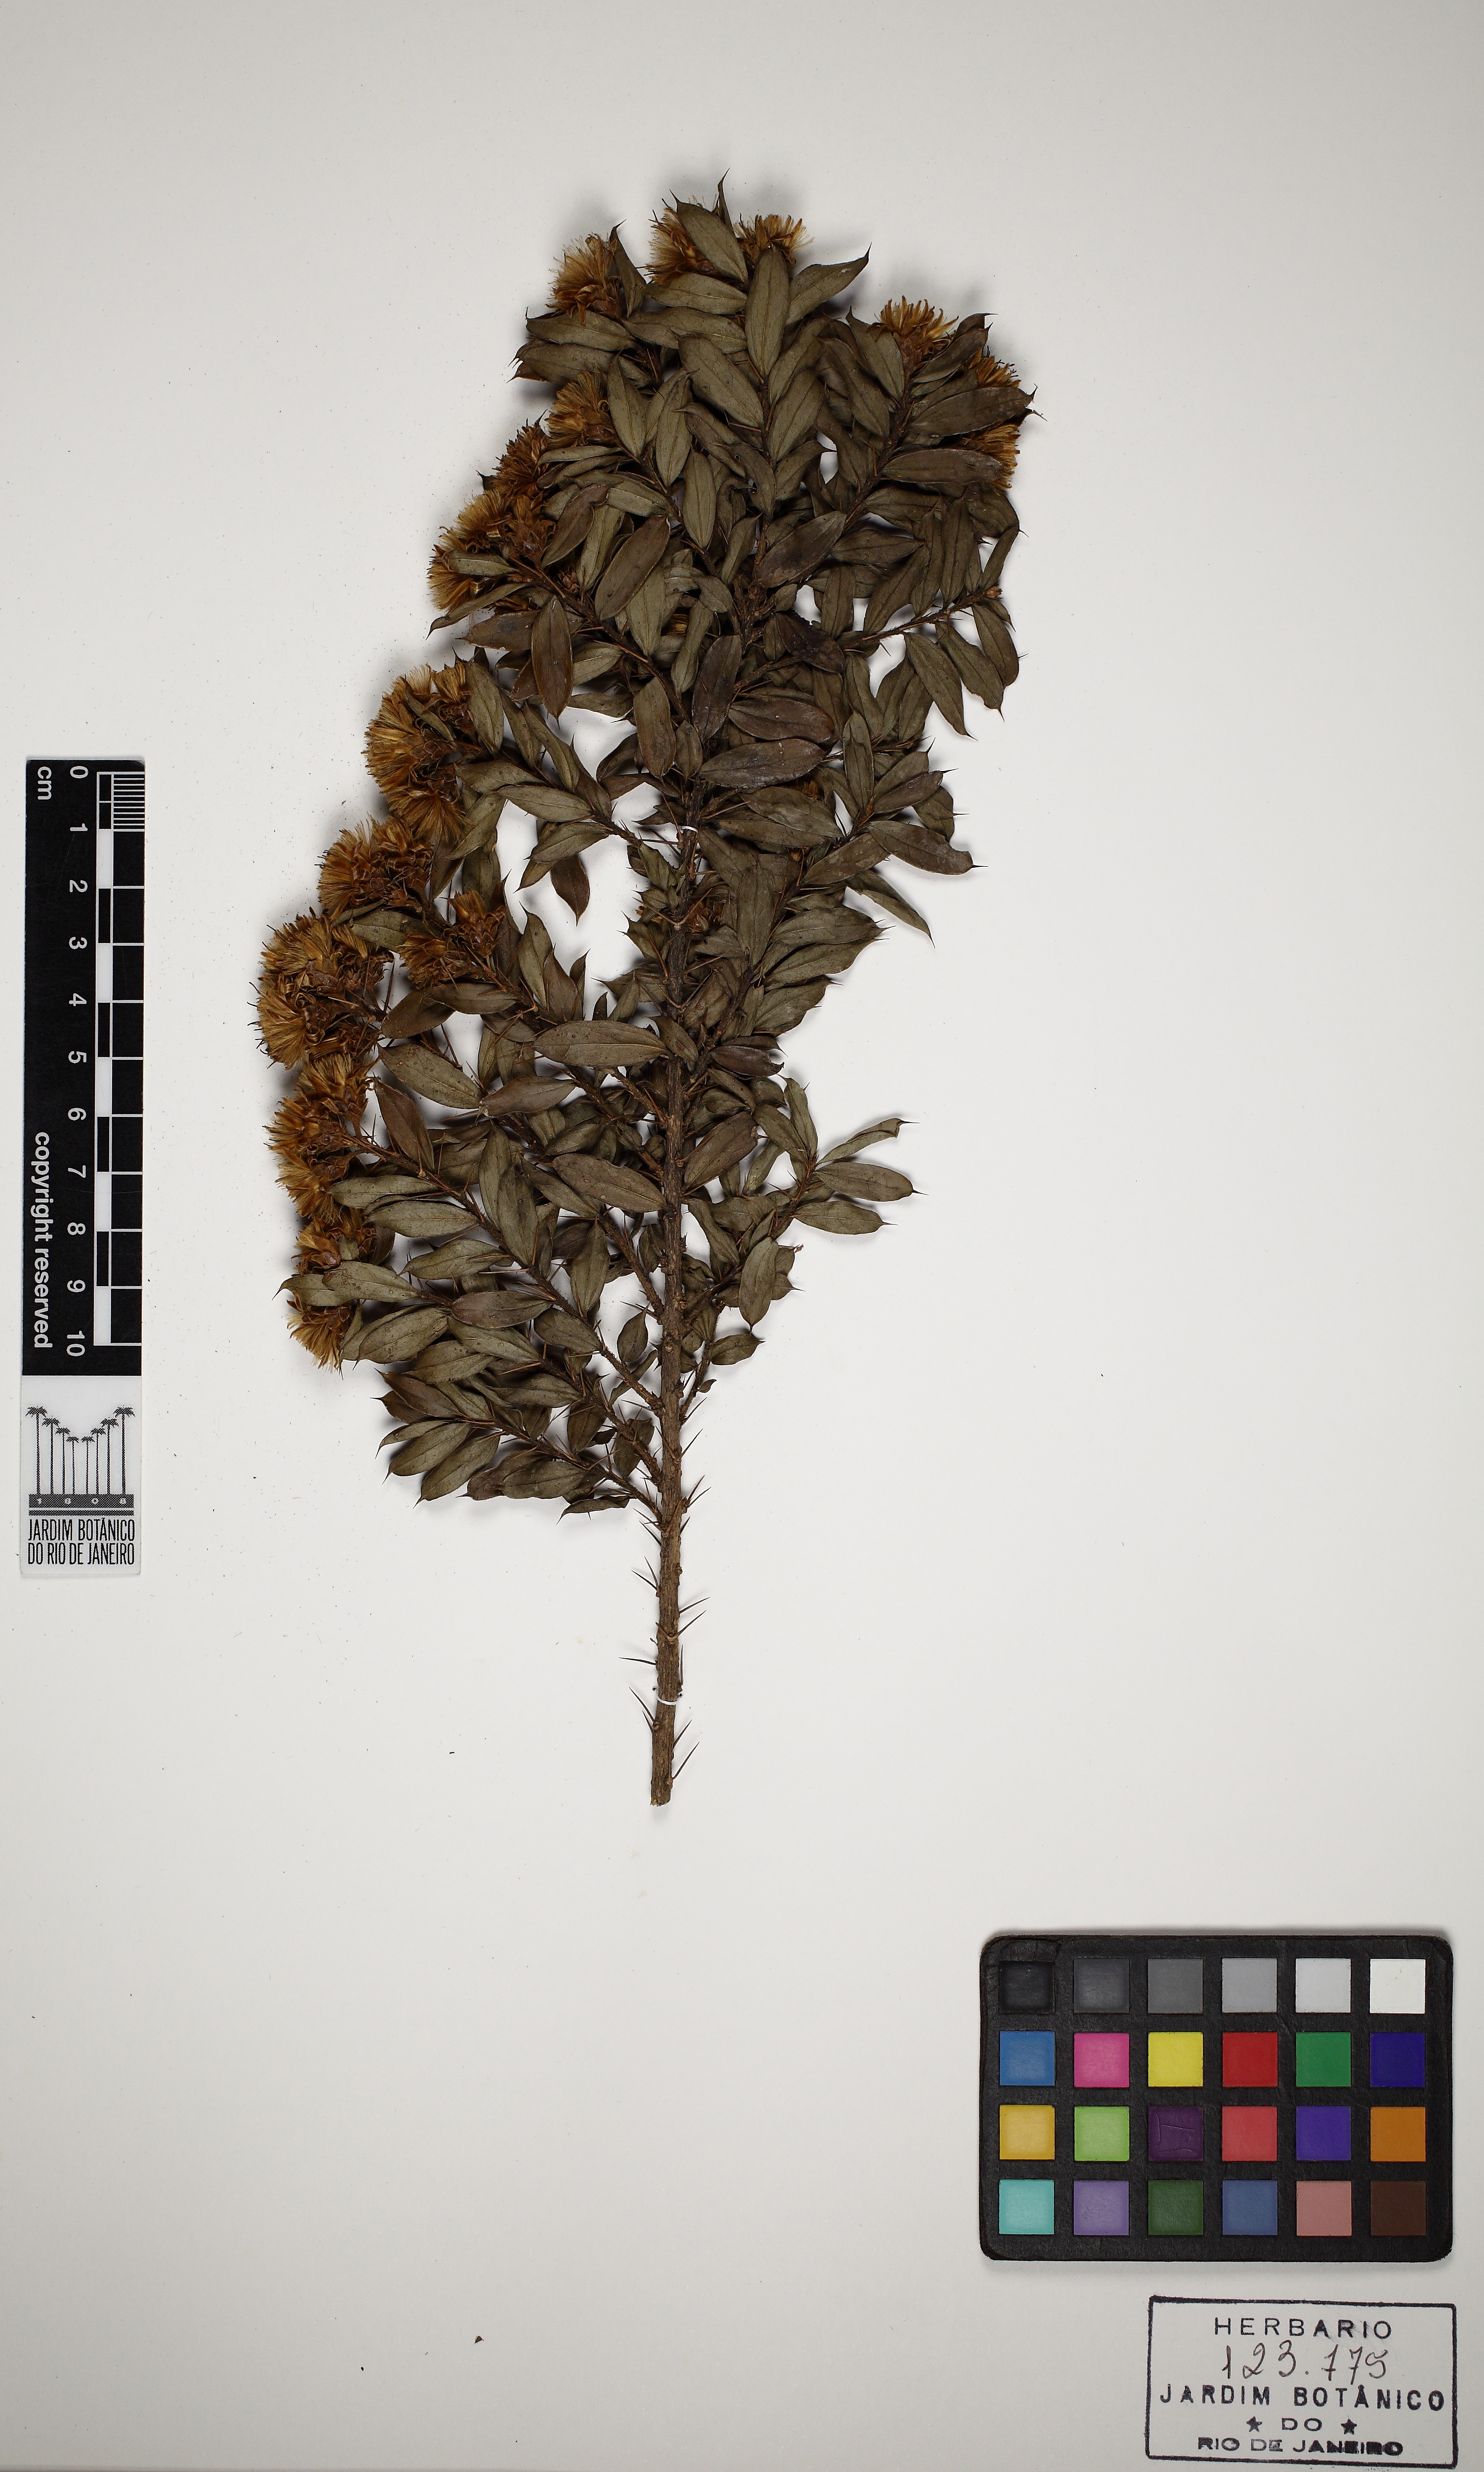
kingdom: Plantae
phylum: Tracheophyta
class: Magnoliopsida
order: Asterales
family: Asteraceae
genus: Dasyphyllum
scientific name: Dasyphyllum leptacanthum
